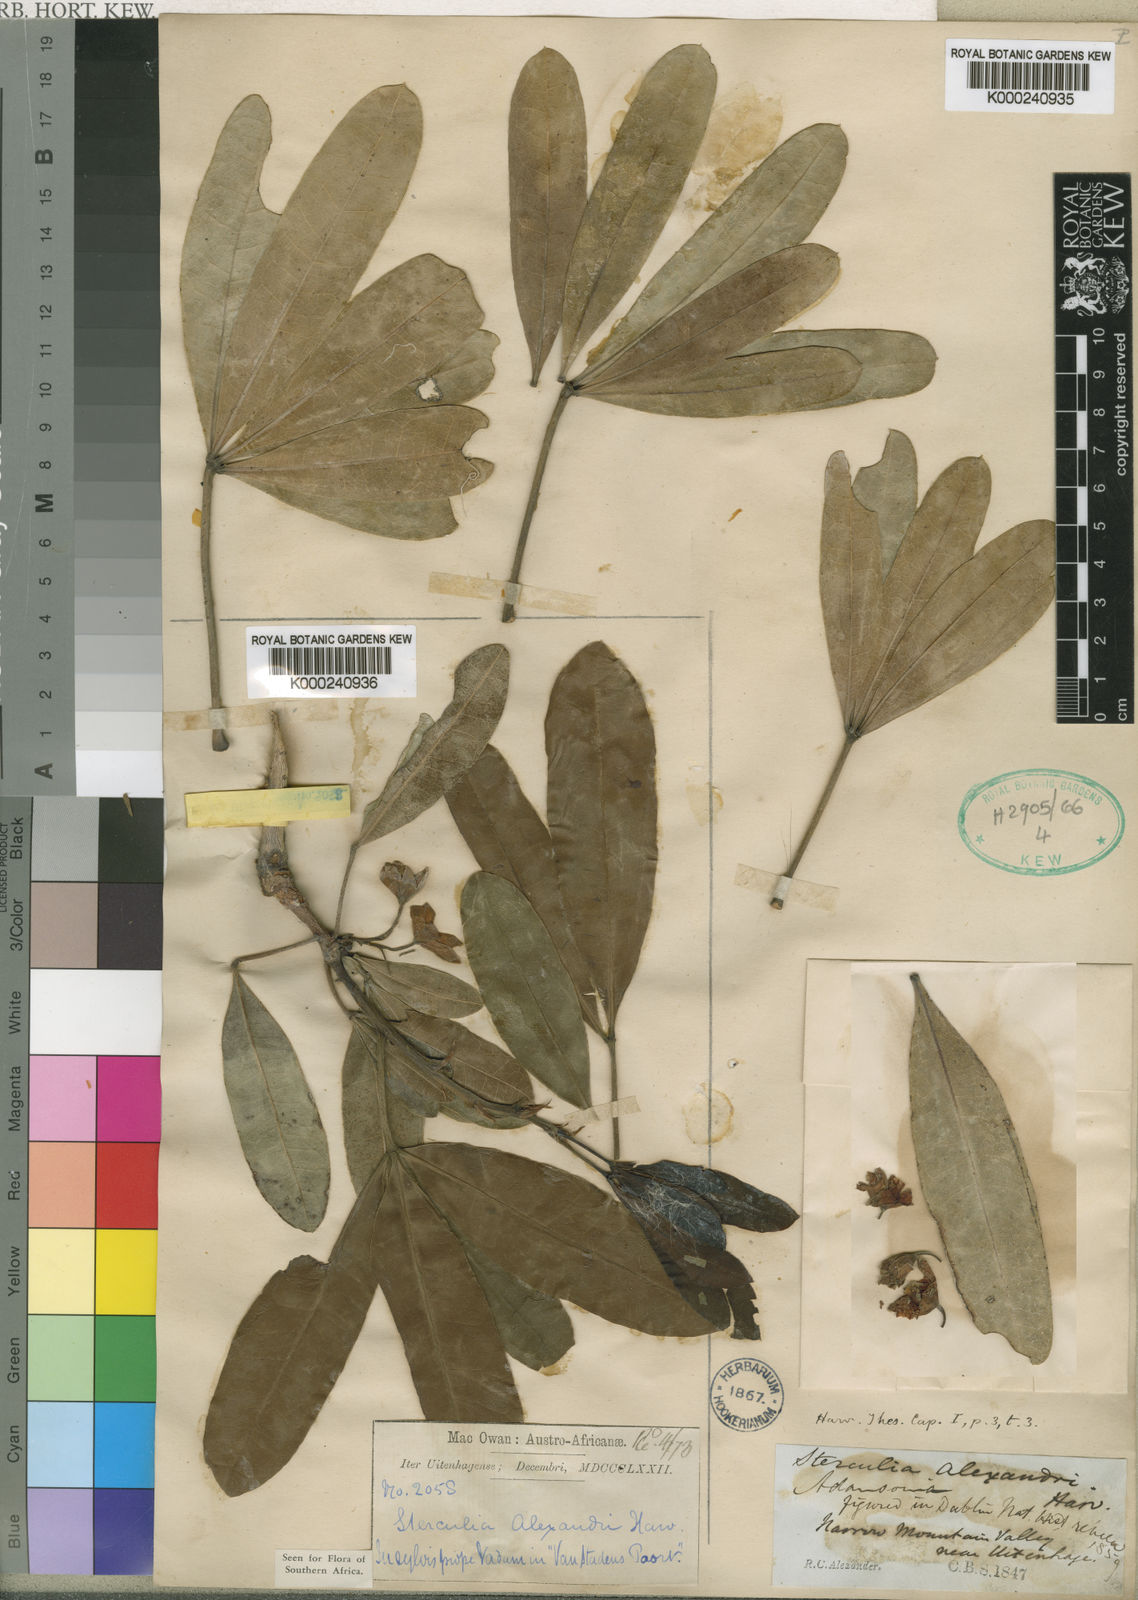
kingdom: Plantae
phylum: Tracheophyta
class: Magnoliopsida
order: Malvales
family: Malvaceae
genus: Sterculia
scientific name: Sterculia alexandri
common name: Cape star-chestnut
